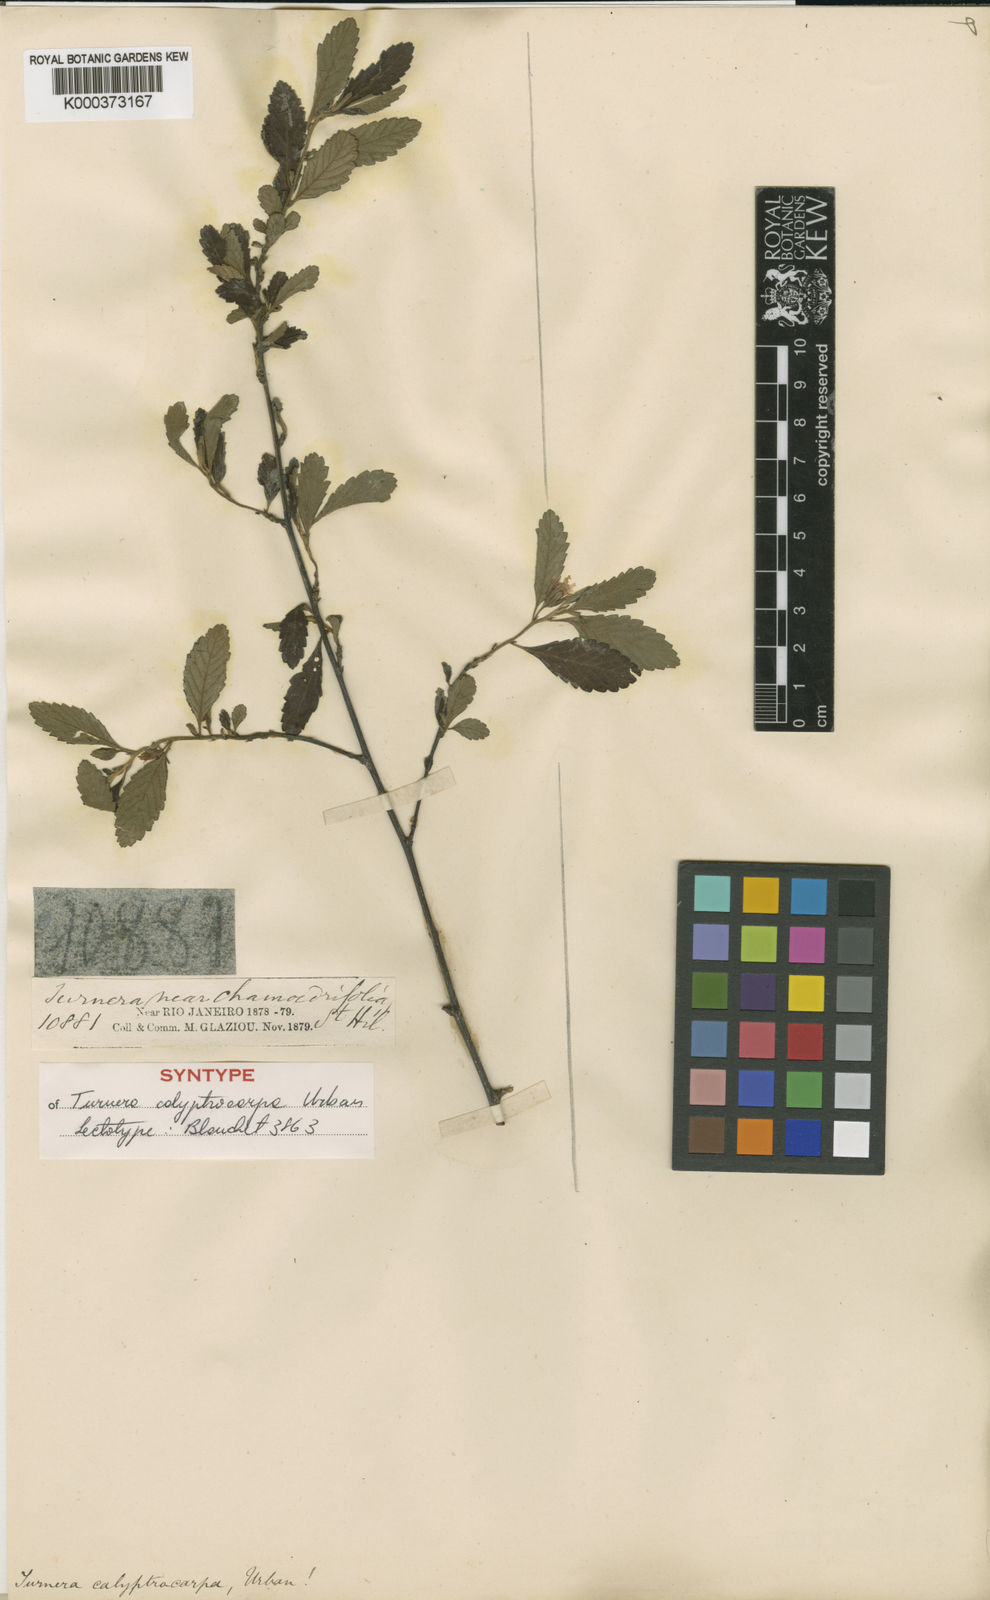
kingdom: Plantae
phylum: Tracheophyta
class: Magnoliopsida
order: Malpighiales
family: Turneraceae
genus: Oxossia
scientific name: Oxossia calyptrocarpa
